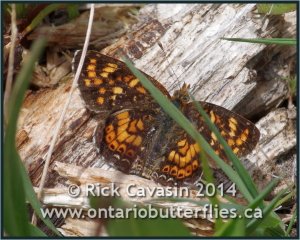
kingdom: Animalia
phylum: Arthropoda
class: Insecta
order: Lepidoptera
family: Nymphalidae
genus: Phyciodes
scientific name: Phyciodes tharos
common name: Field Crescent
